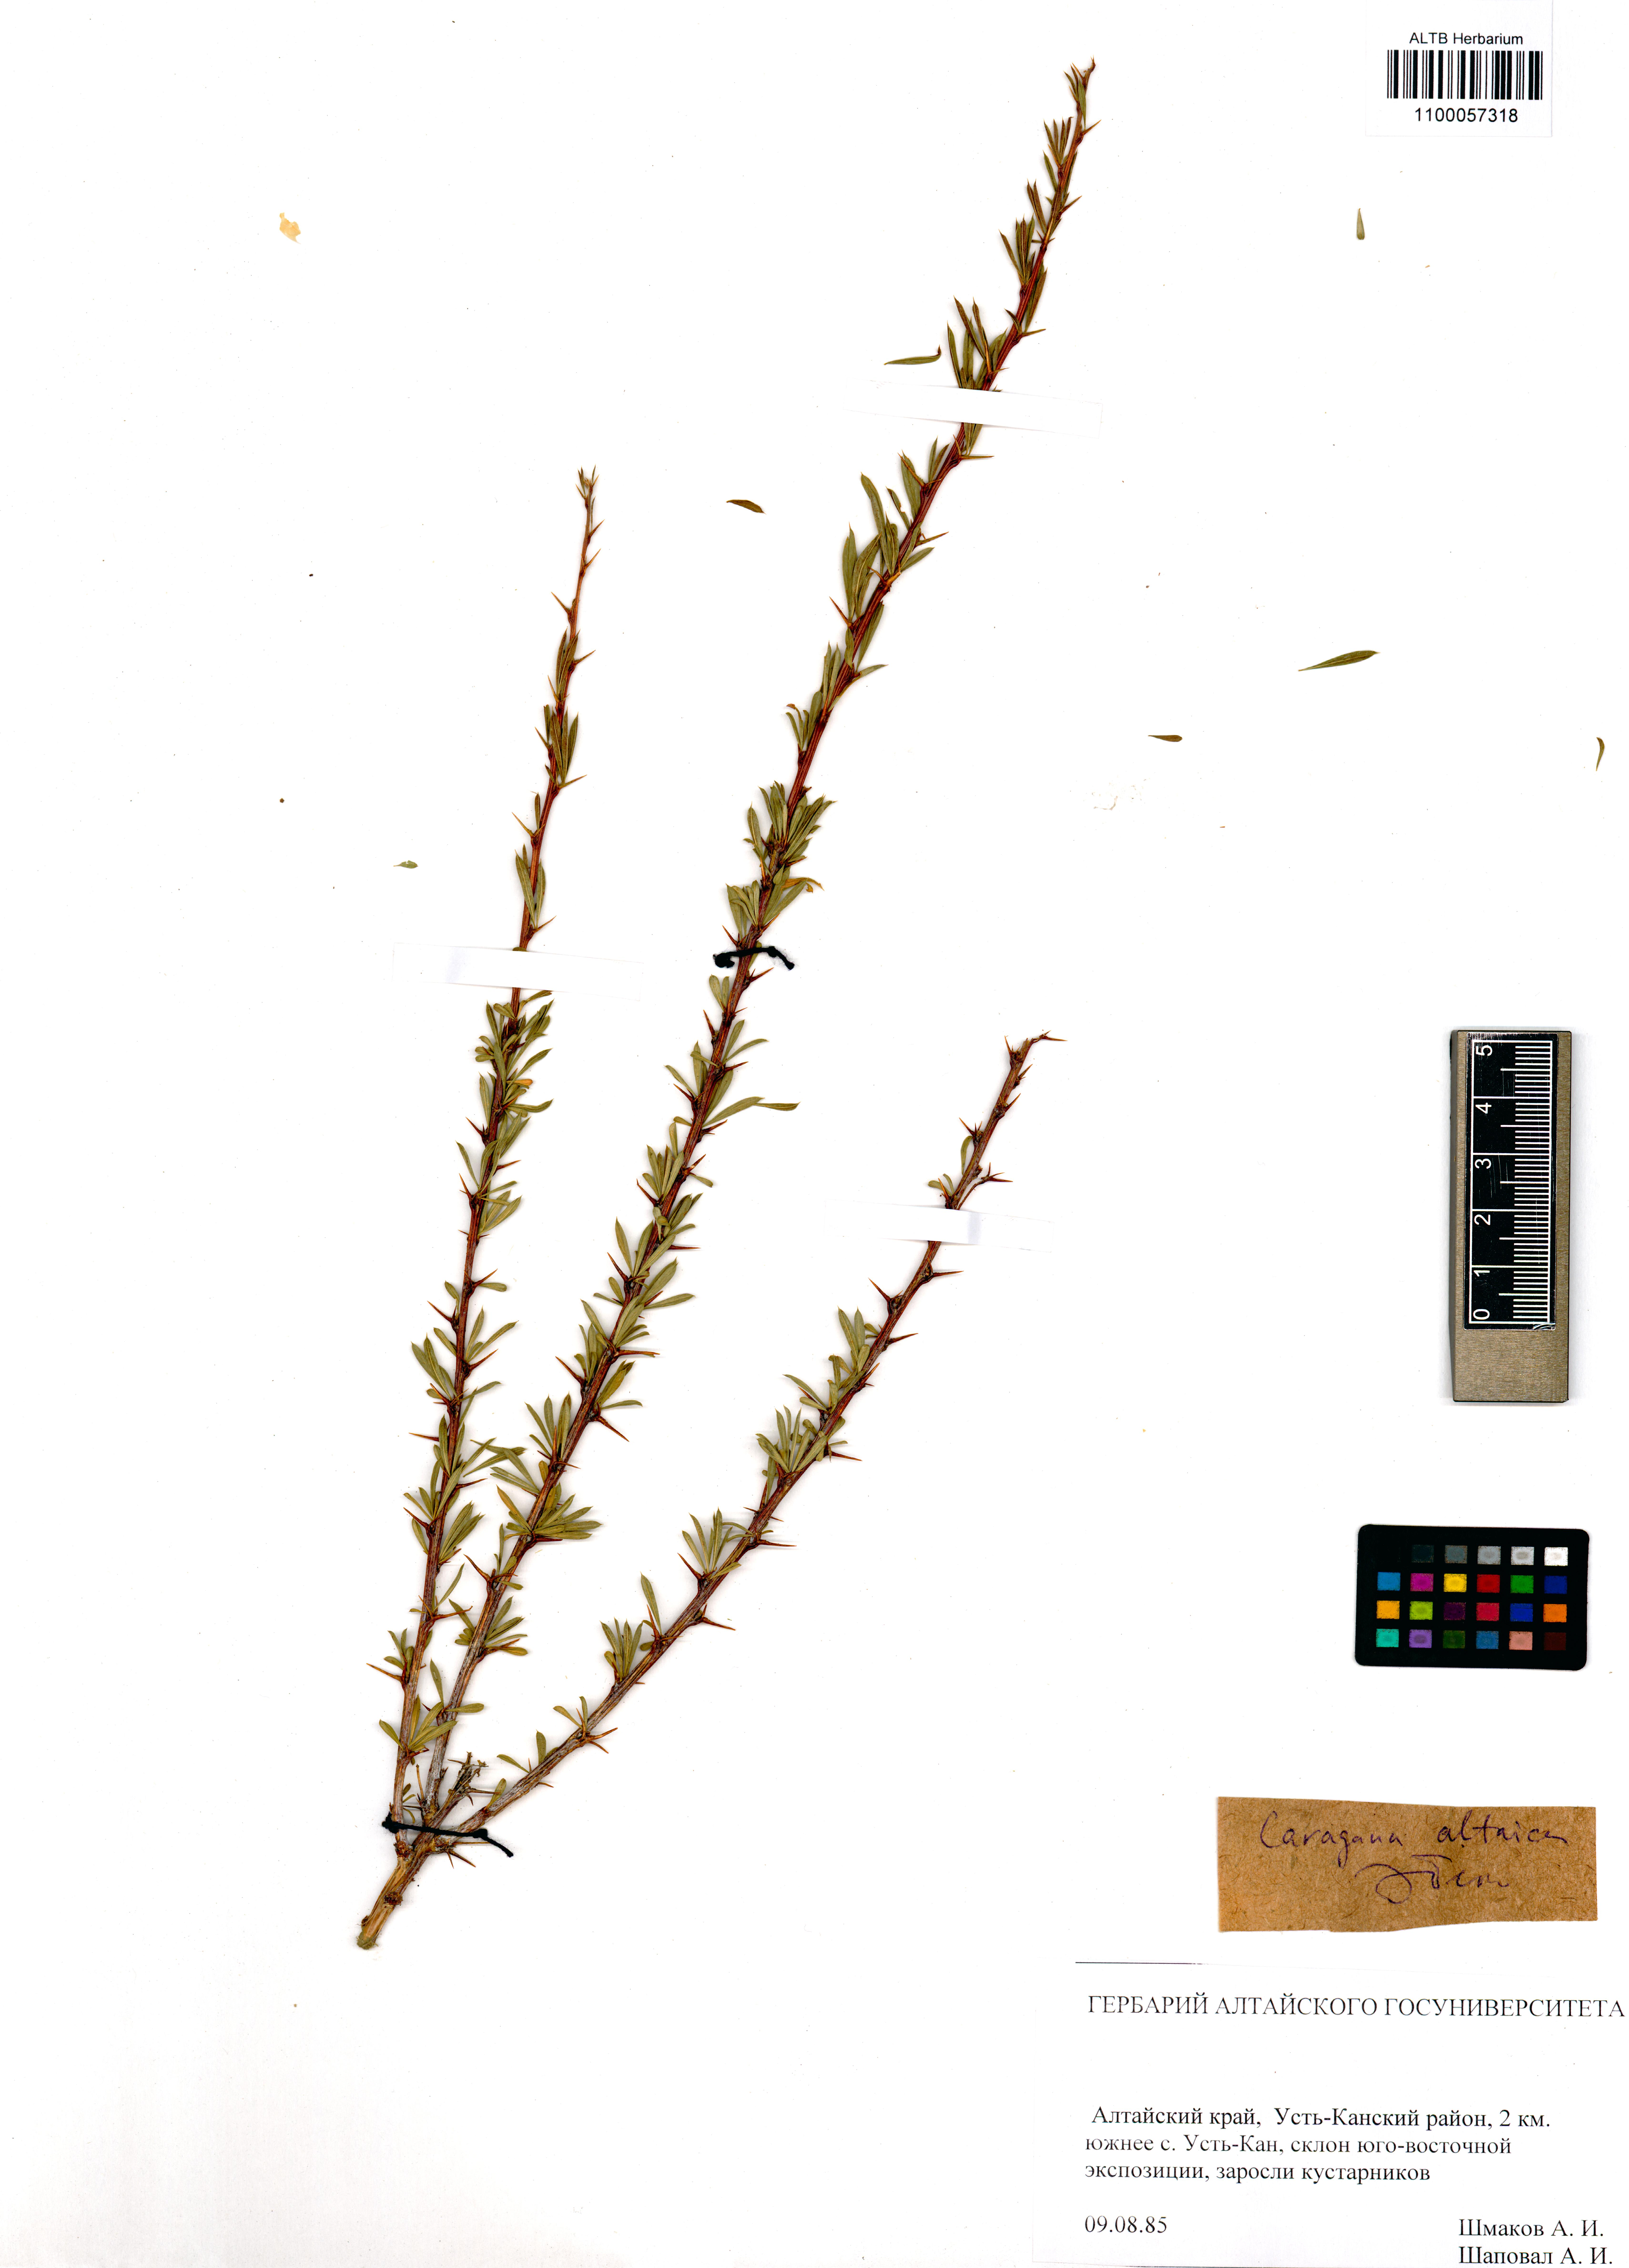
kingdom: Plantae
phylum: Tracheophyta
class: Magnoliopsida
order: Fabales
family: Fabaceae
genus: Caragana
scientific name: Caragana pygmaea
